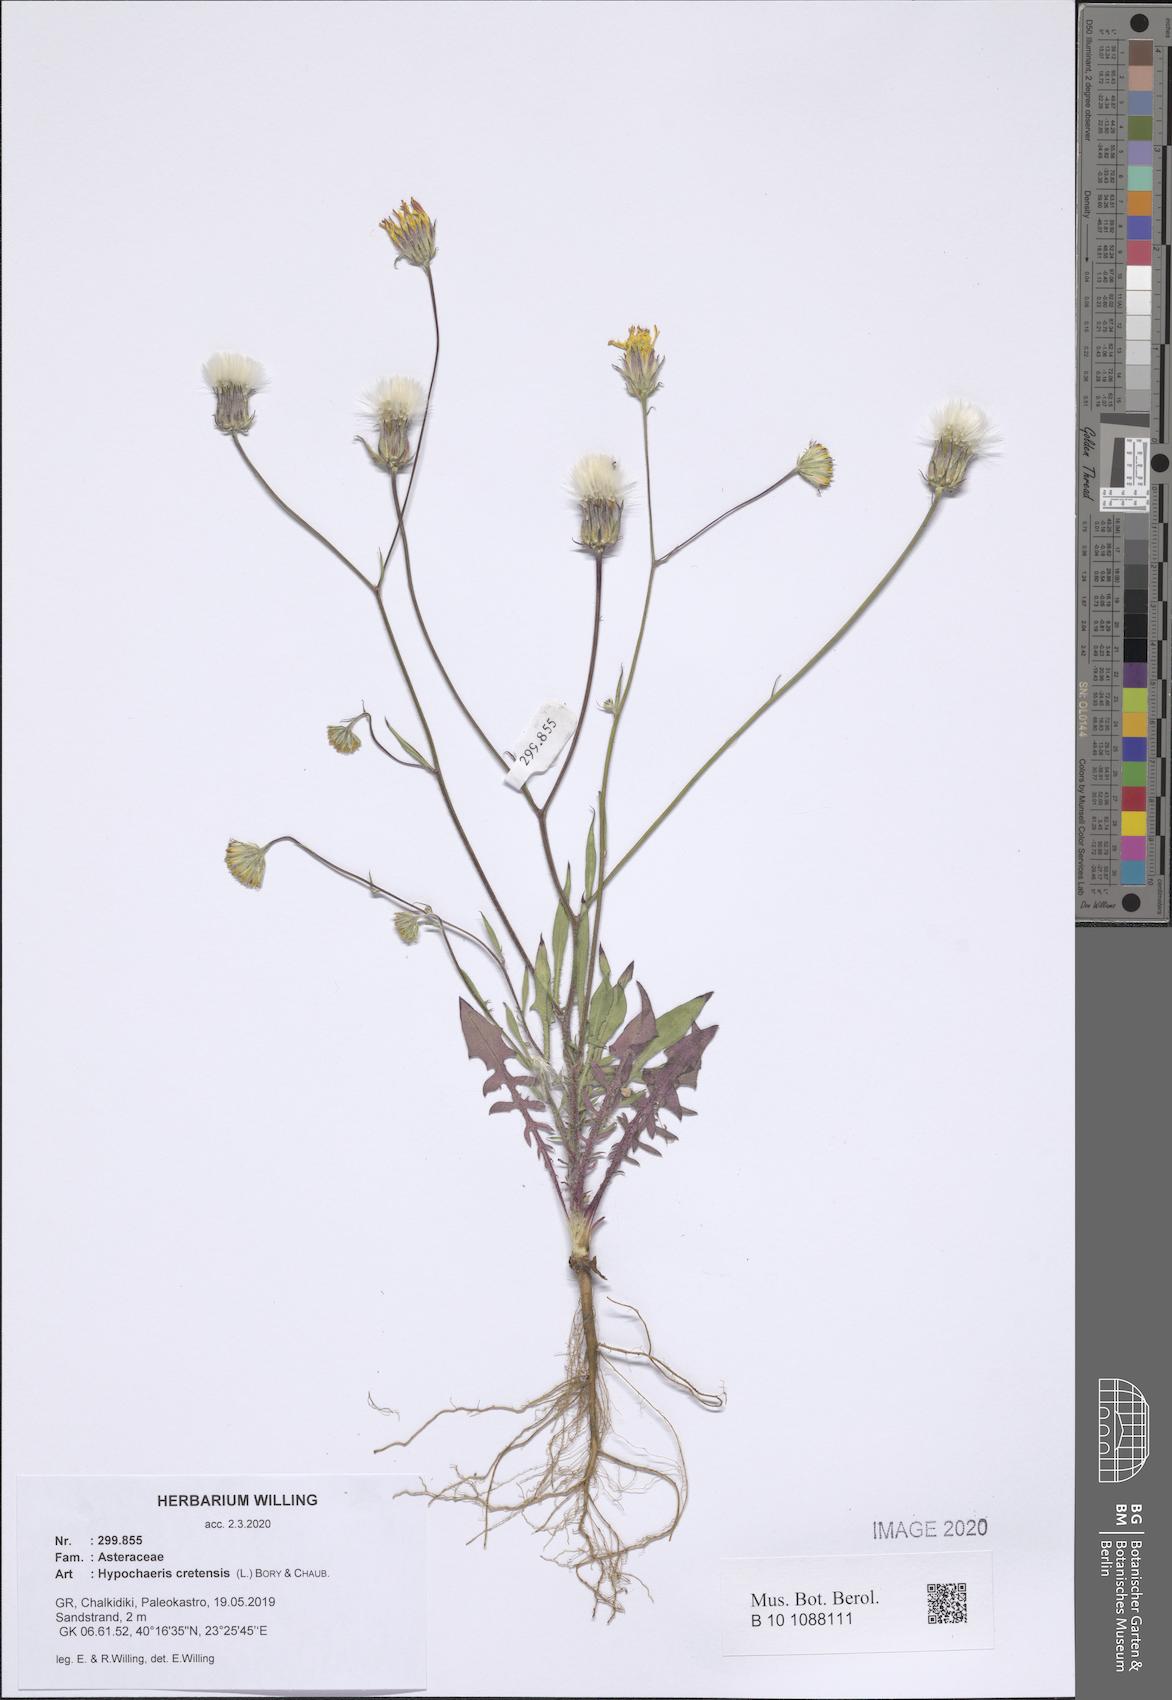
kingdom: Plantae
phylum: Tracheophyta
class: Magnoliopsida
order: Asterales
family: Asteraceae
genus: Hypochaeris
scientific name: Hypochaeris cretensis
